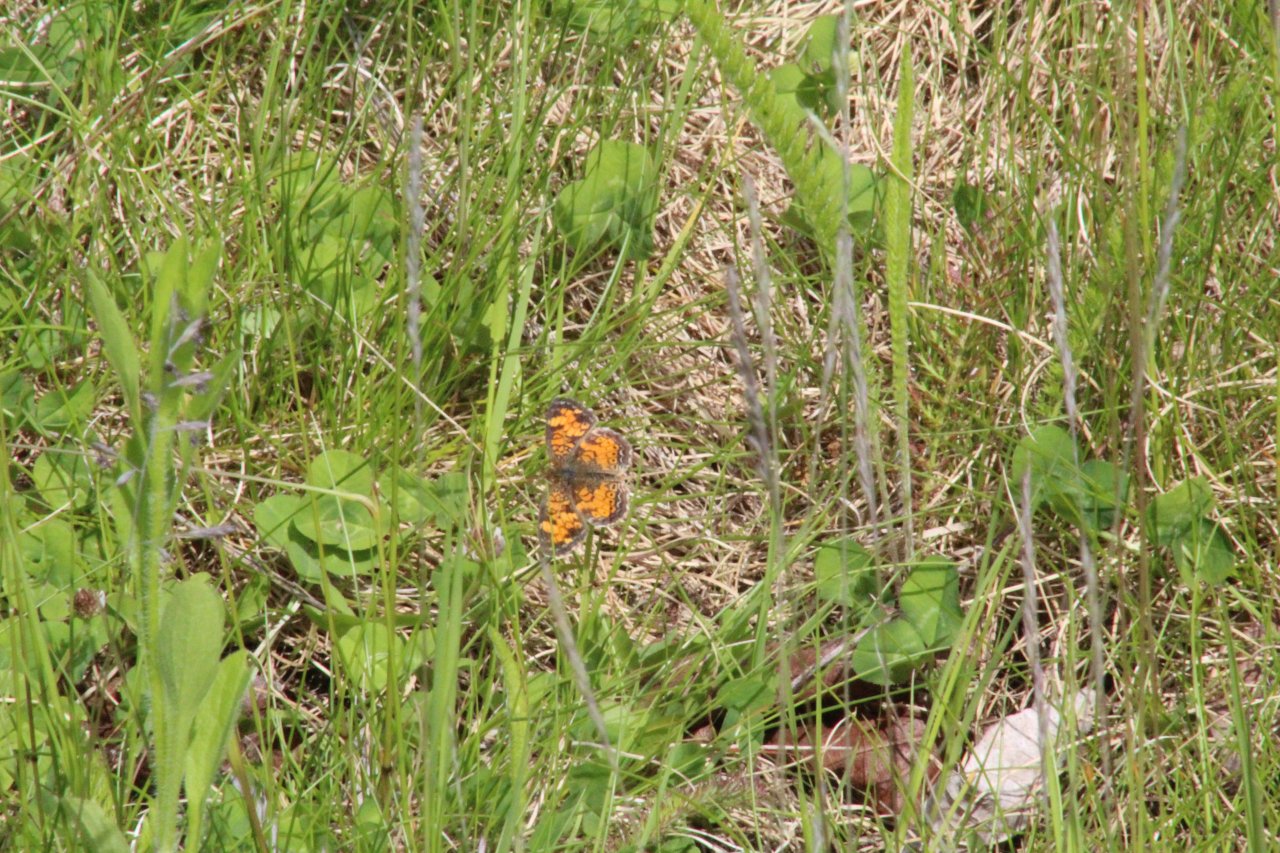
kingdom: Animalia
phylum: Arthropoda
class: Insecta
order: Lepidoptera
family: Nymphalidae
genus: Phyciodes
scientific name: Phyciodes tharos
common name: Pearl Crescent
